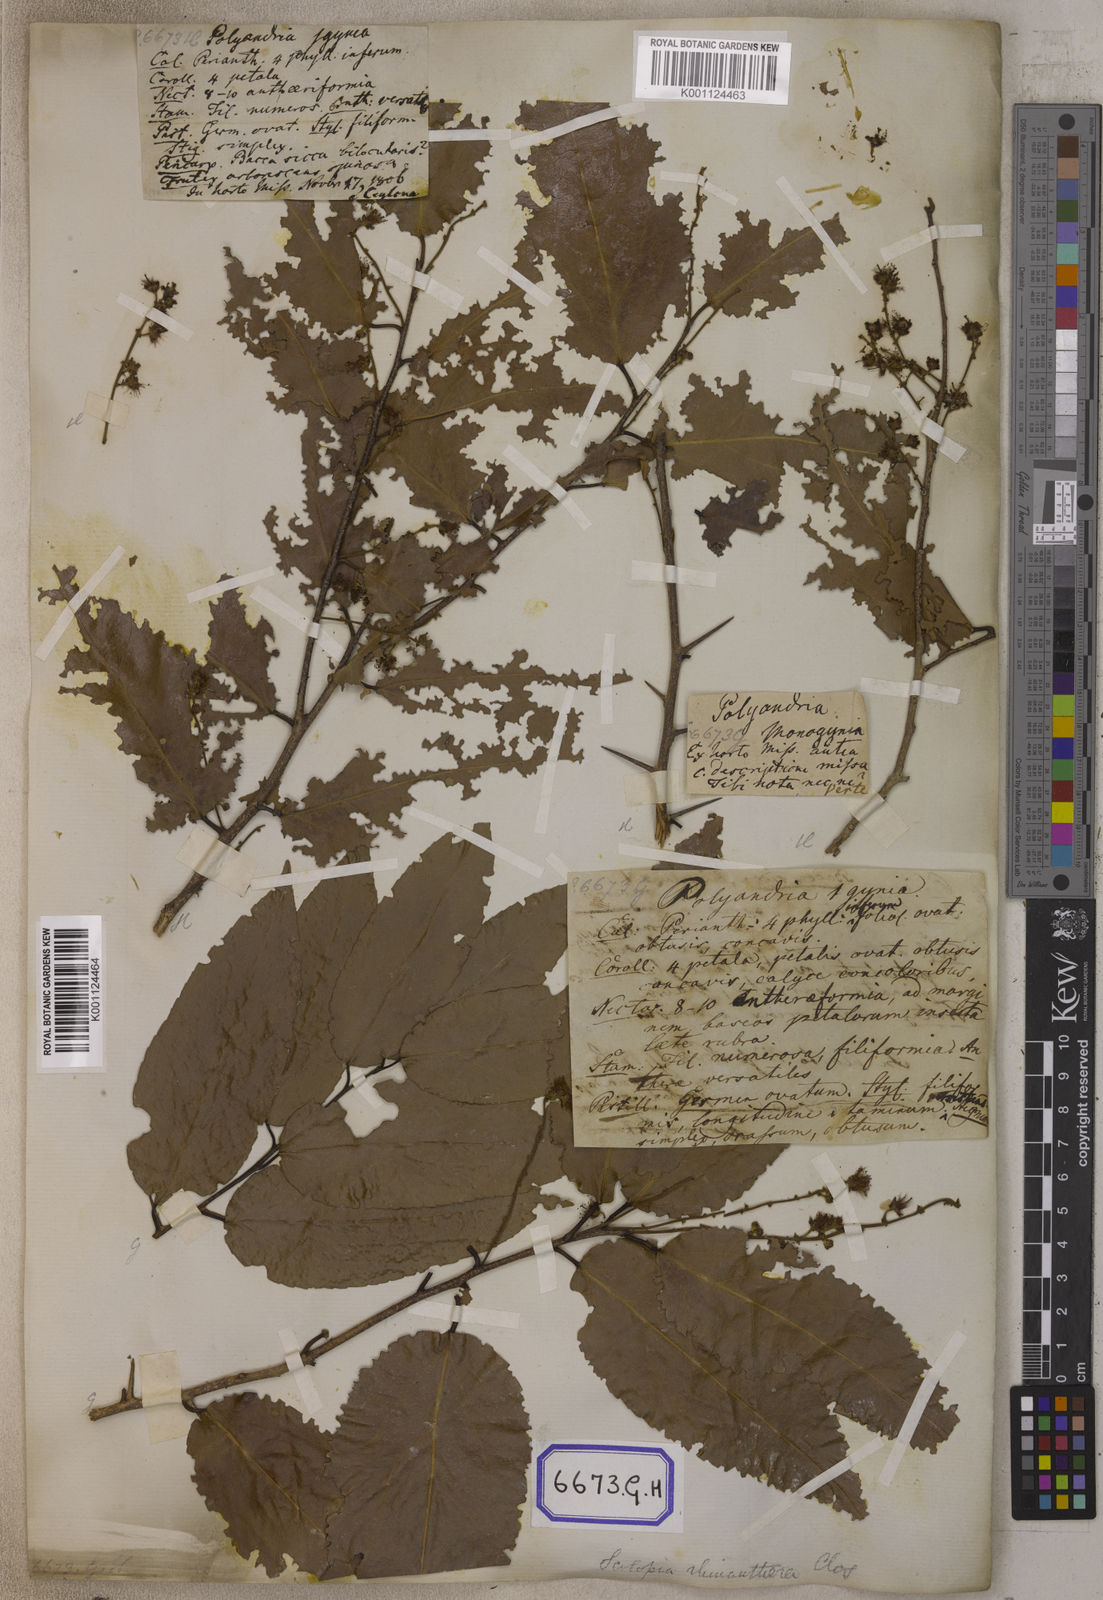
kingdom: Plantae
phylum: Tracheophyta
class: Magnoliopsida
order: Malpighiales
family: Salicaceae
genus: Flacourtia
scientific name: Flacourtia
